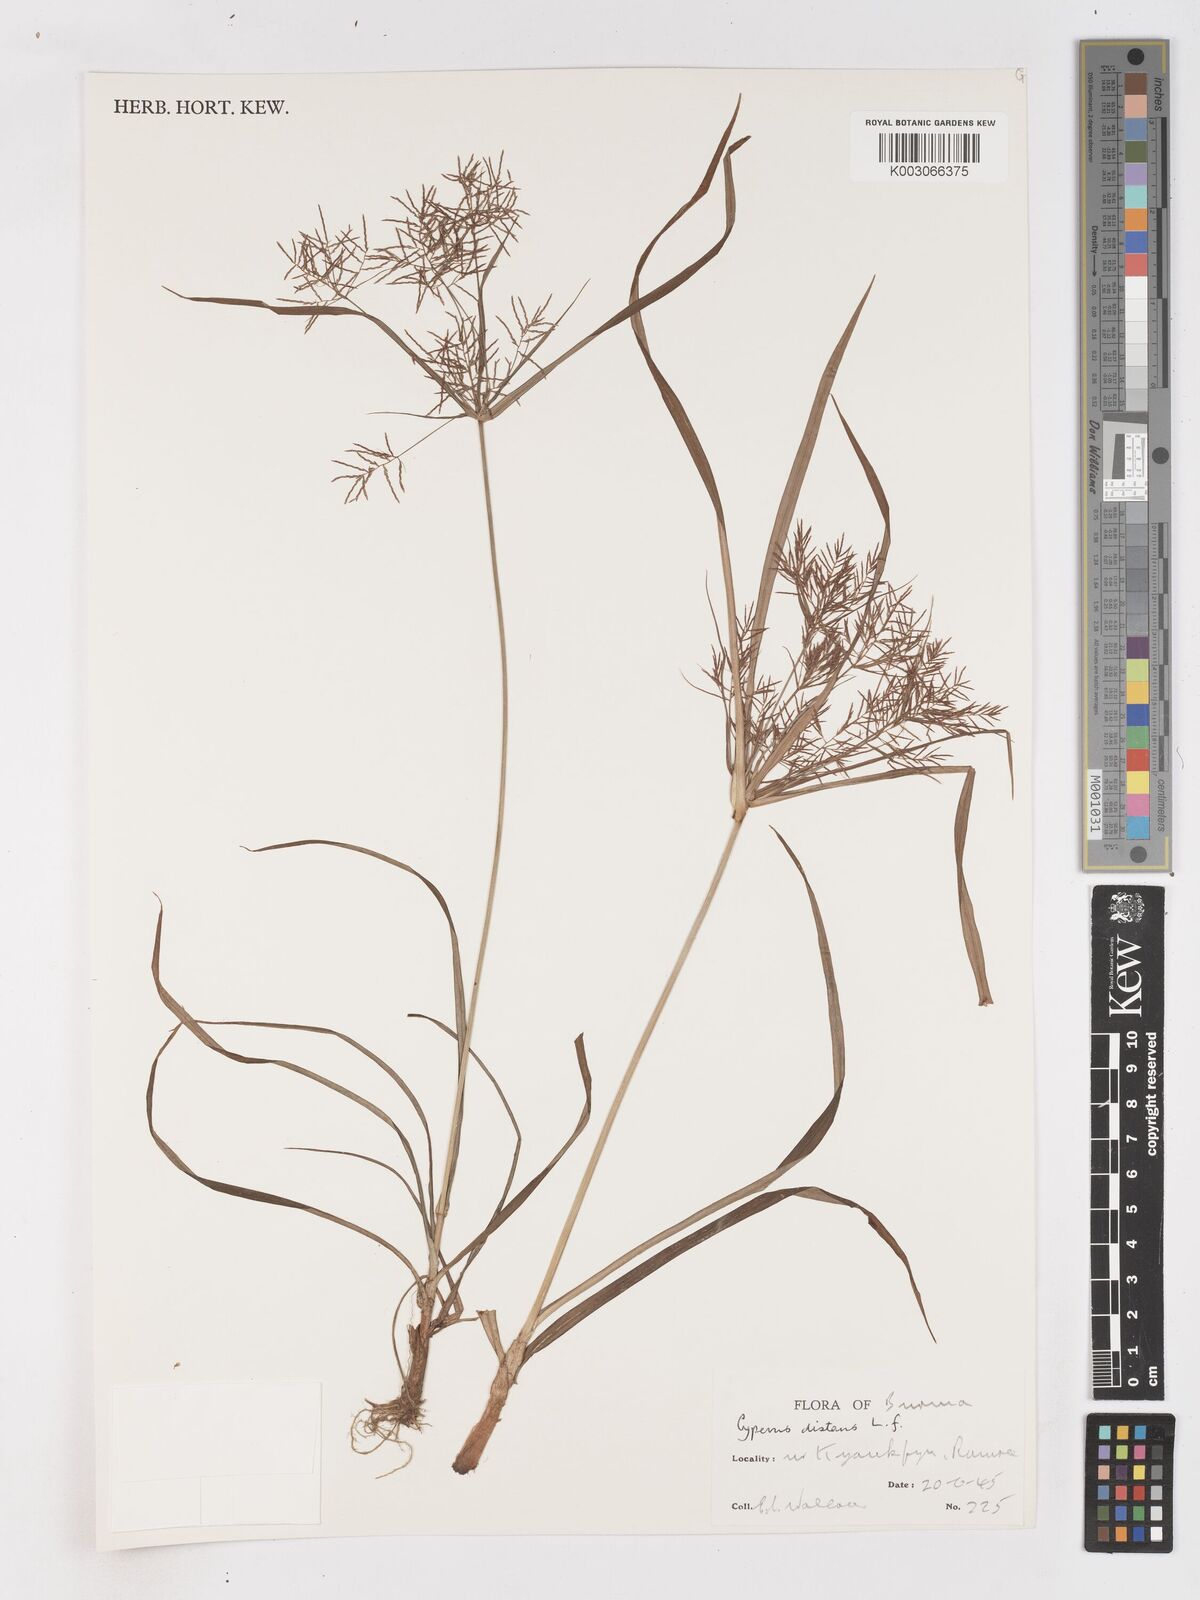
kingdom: Plantae
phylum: Tracheophyta
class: Liliopsida
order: Poales
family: Cyperaceae
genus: Cyperus
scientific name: Cyperus distans
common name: Slender cyperus
